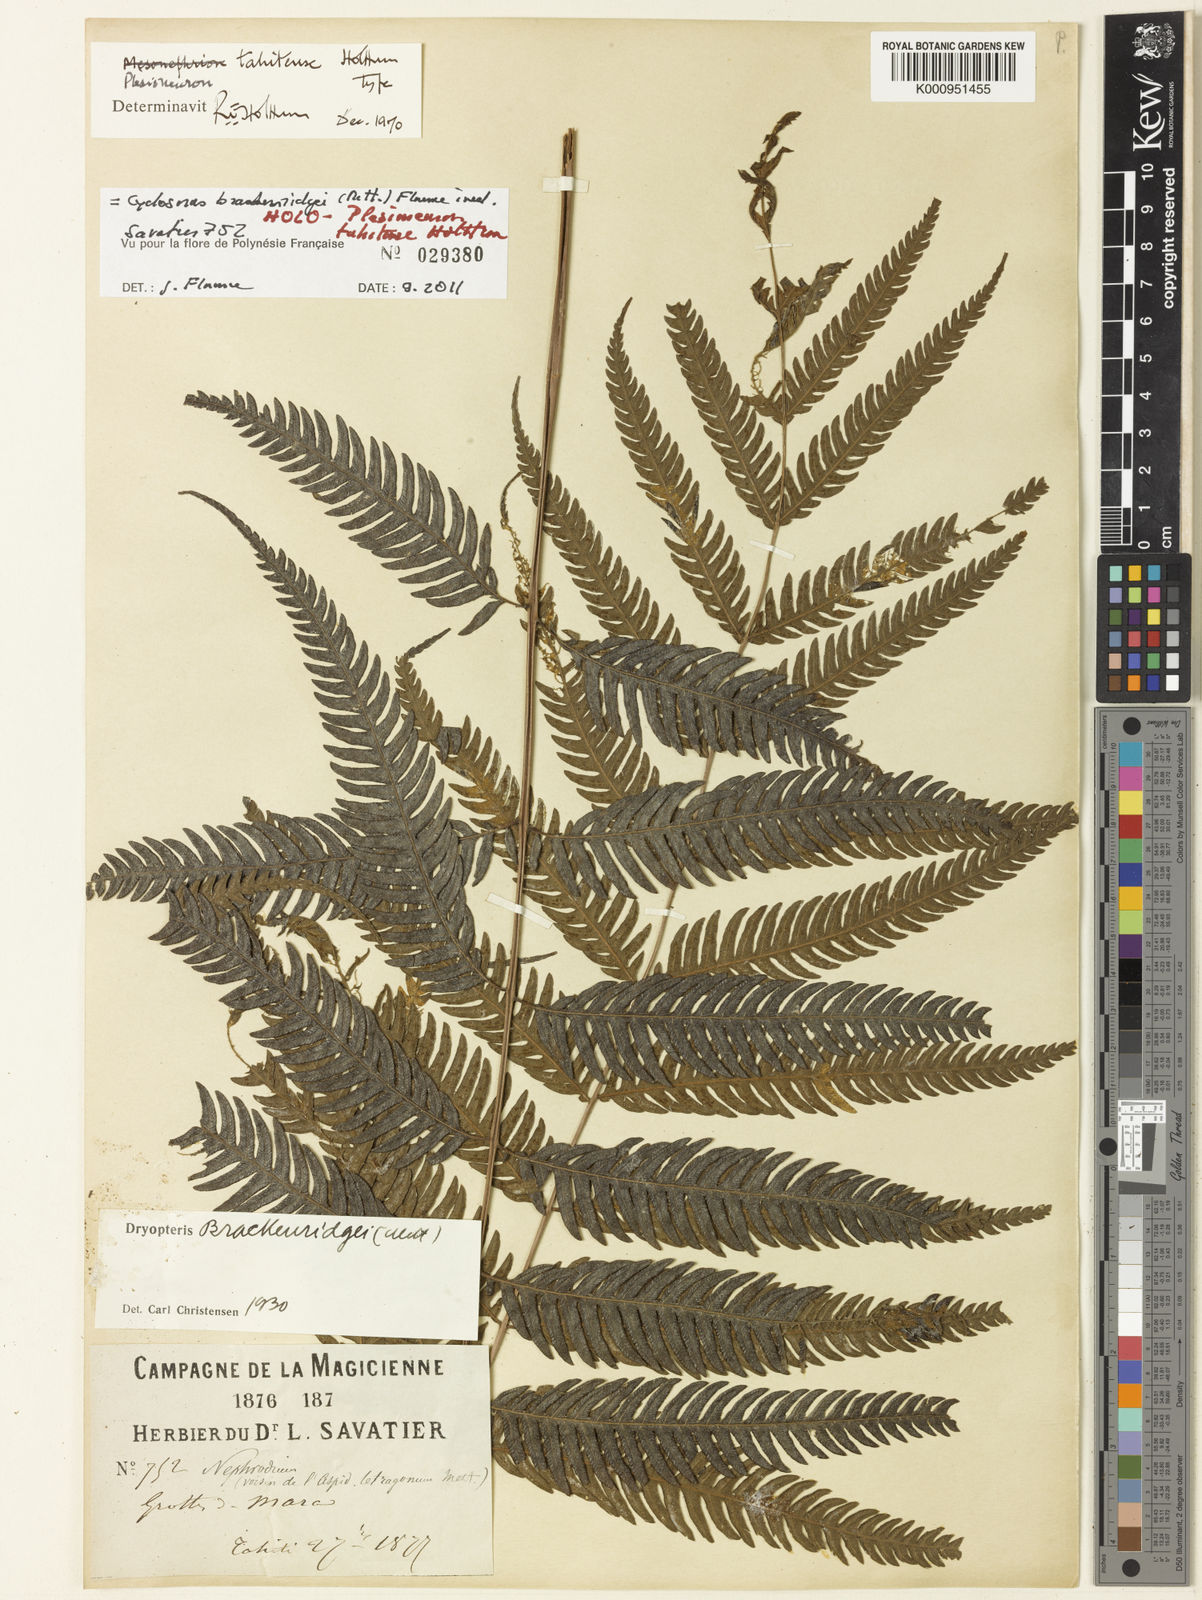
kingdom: Plantae
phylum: Tracheophyta
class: Polypodiopsida
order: Polypodiales
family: Thelypteridaceae
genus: Plesioneuron
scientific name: Plesioneuron tahitense
